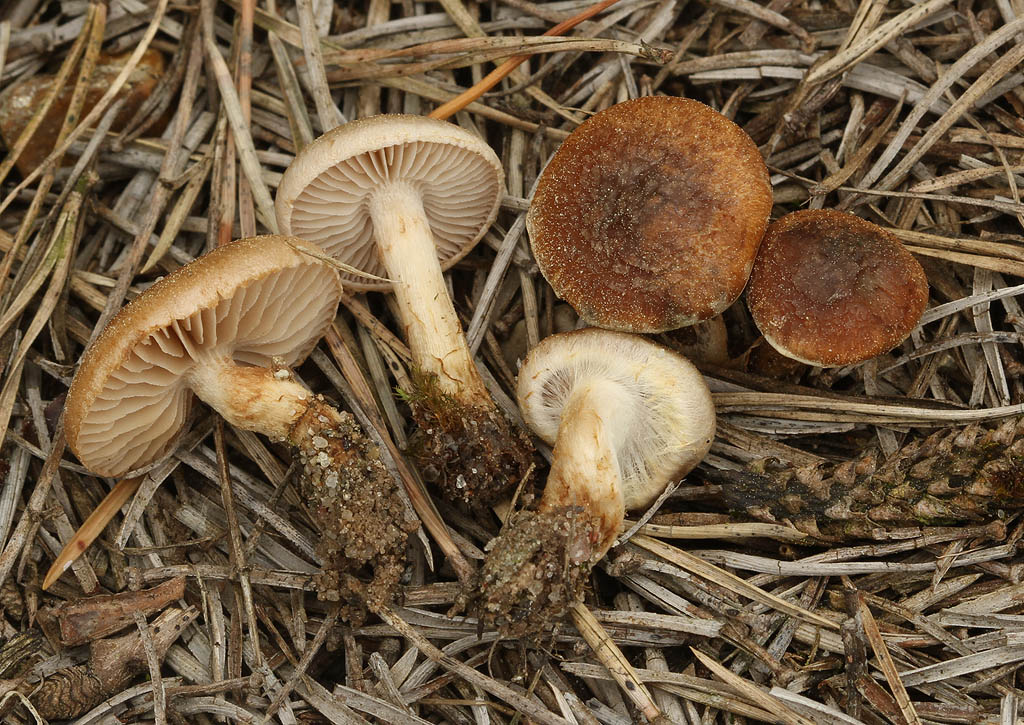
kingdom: Fungi
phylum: Basidiomycota
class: Agaricomycetes
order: Agaricales
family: Inocybaceae
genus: Inocybe
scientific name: Inocybe dulcamara
